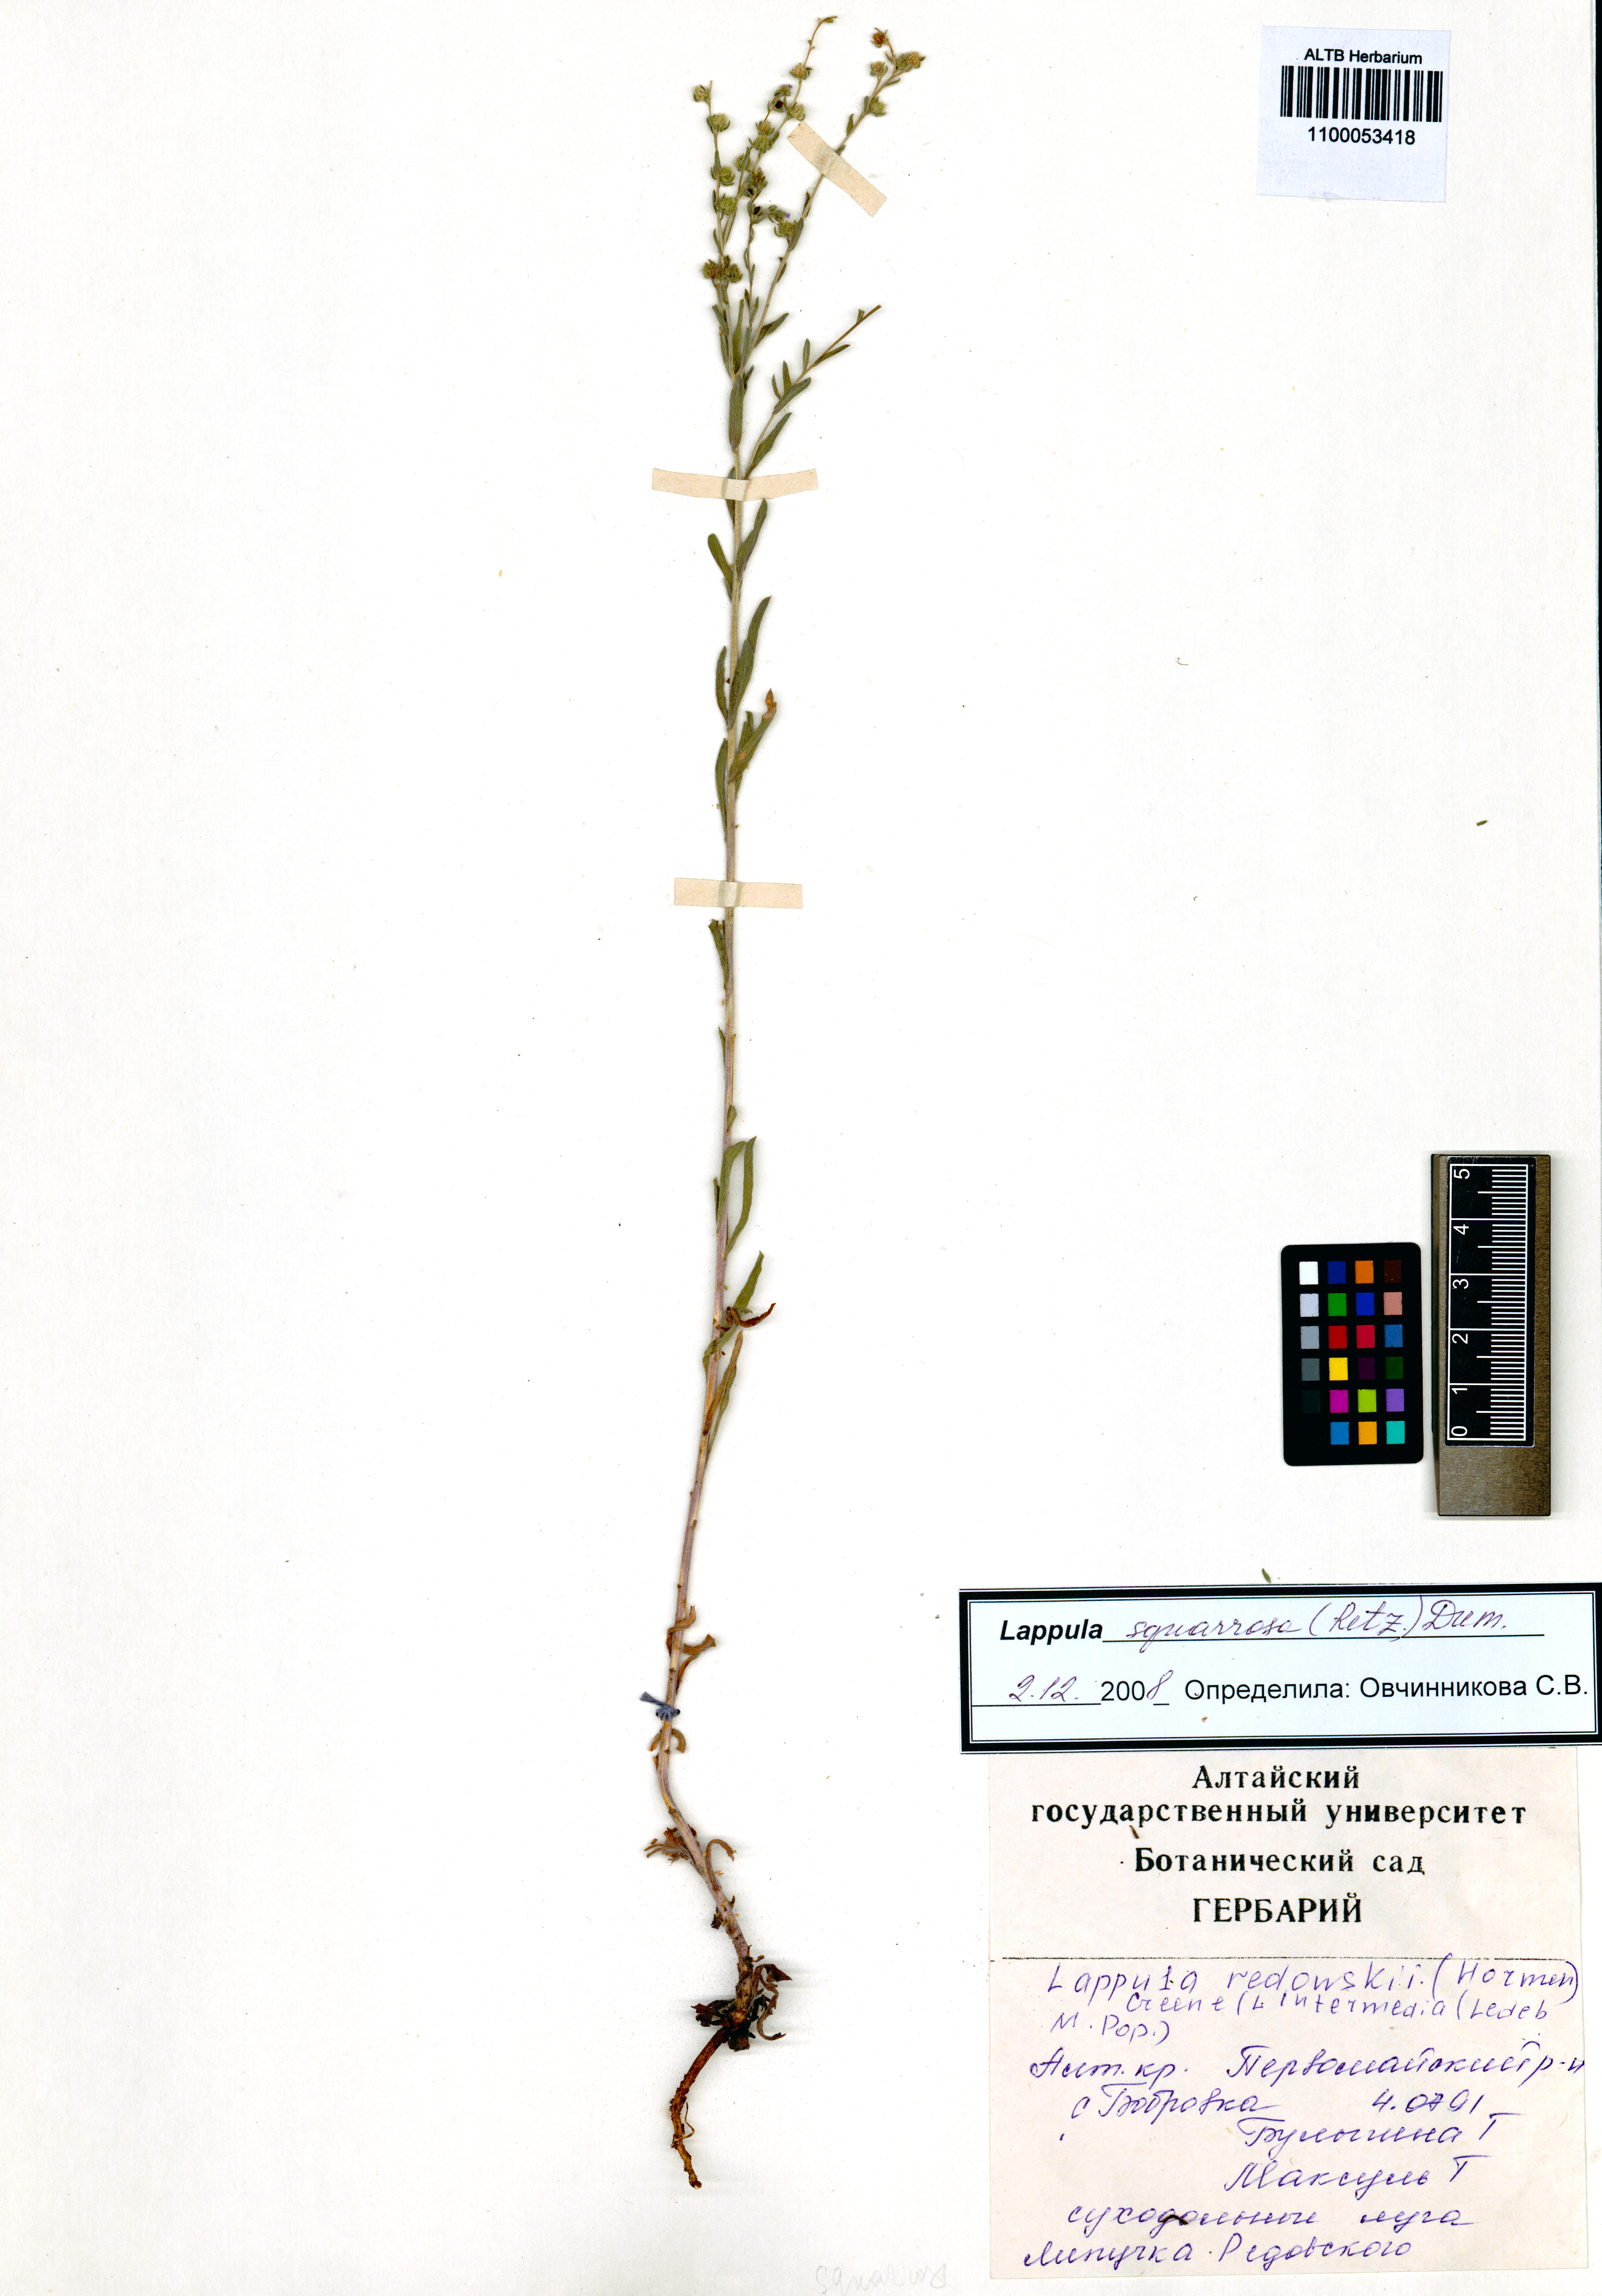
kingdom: Plantae
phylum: Tracheophyta
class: Magnoliopsida
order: Boraginales
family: Boraginaceae
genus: Lappula
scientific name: Lappula squarrosa
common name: European stickseed
